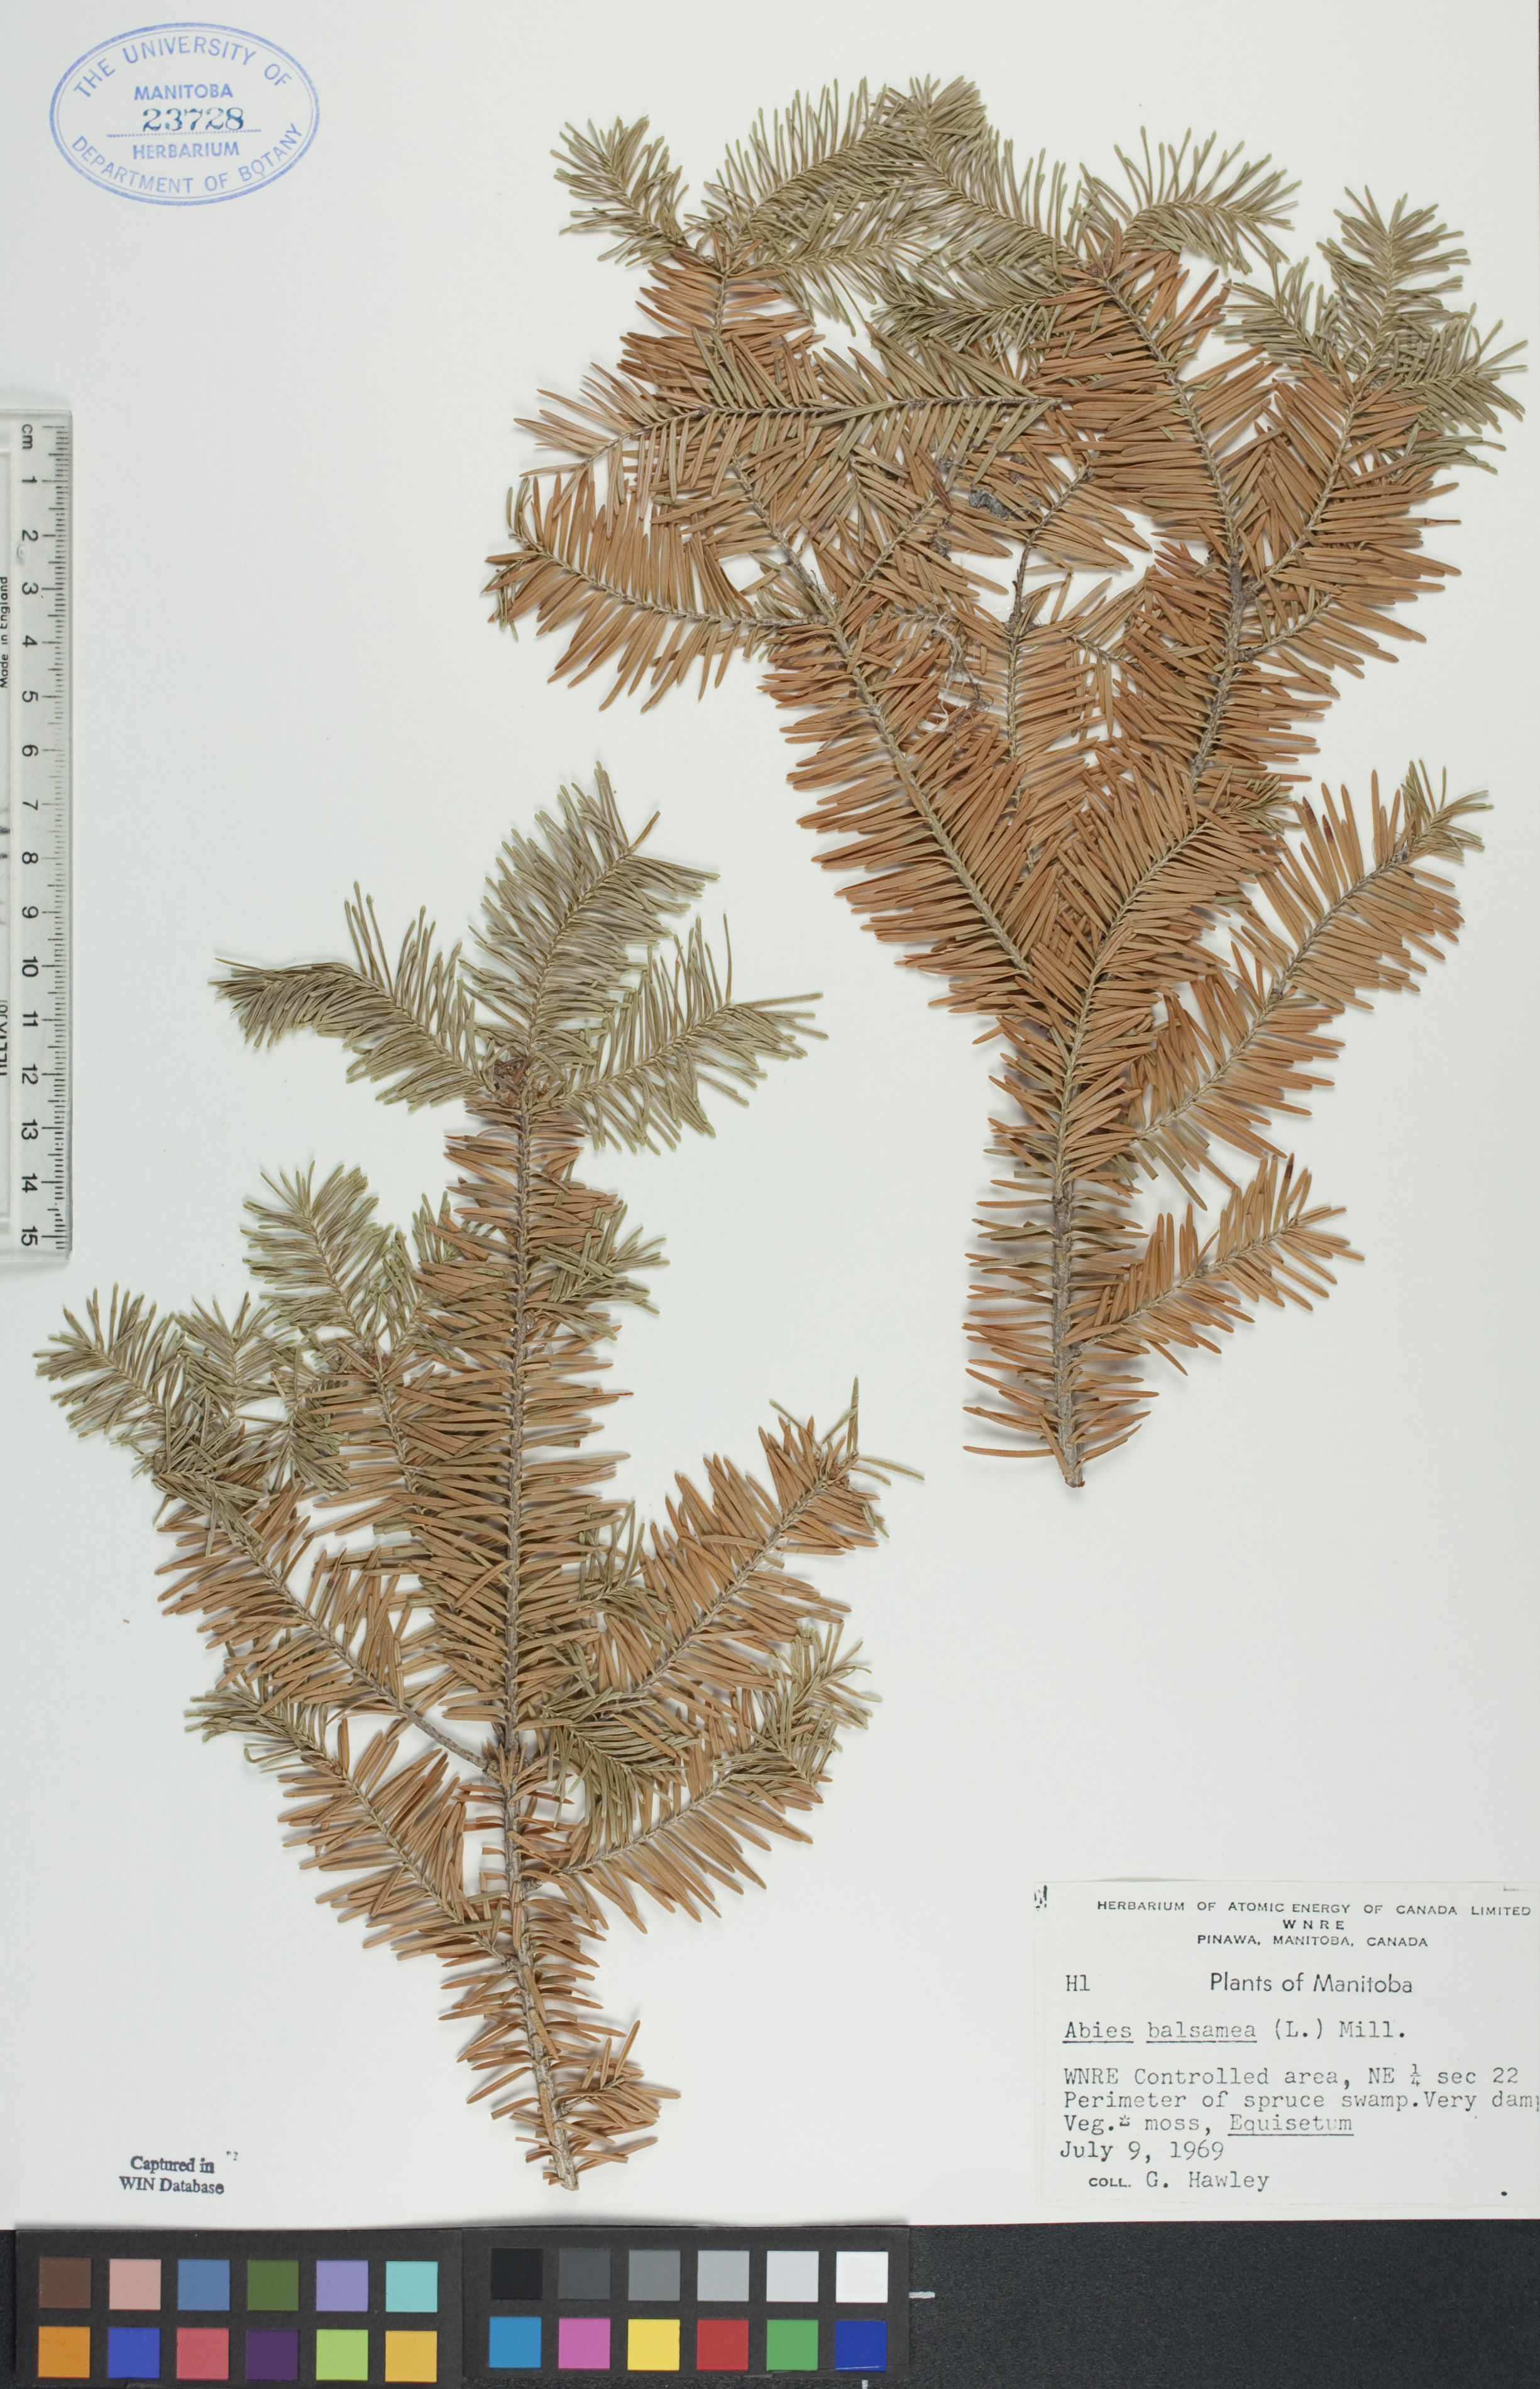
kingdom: Plantae
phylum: Tracheophyta
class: Pinopsida
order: Pinales
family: Pinaceae
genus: Abies
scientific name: Abies balsamea
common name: Balsam fir
